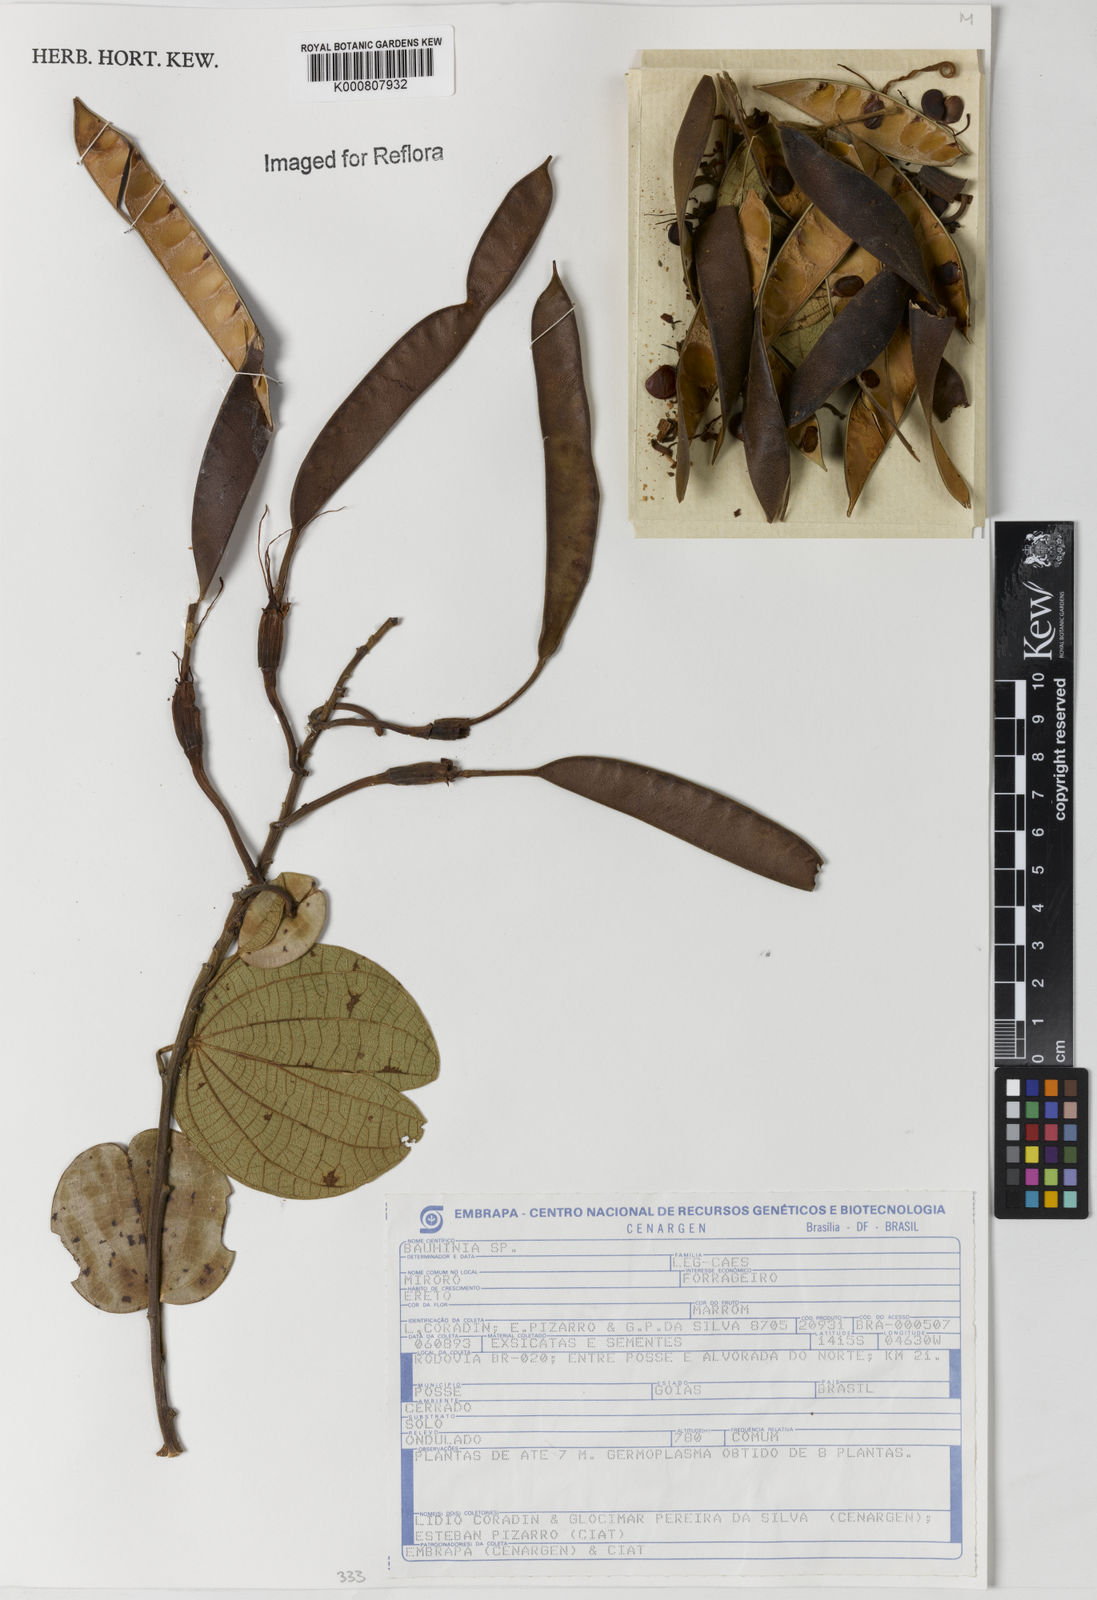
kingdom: Plantae
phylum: Tracheophyta
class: Magnoliopsida
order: Fabales
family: Fabaceae
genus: Bauhinia
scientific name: Bauhinia
